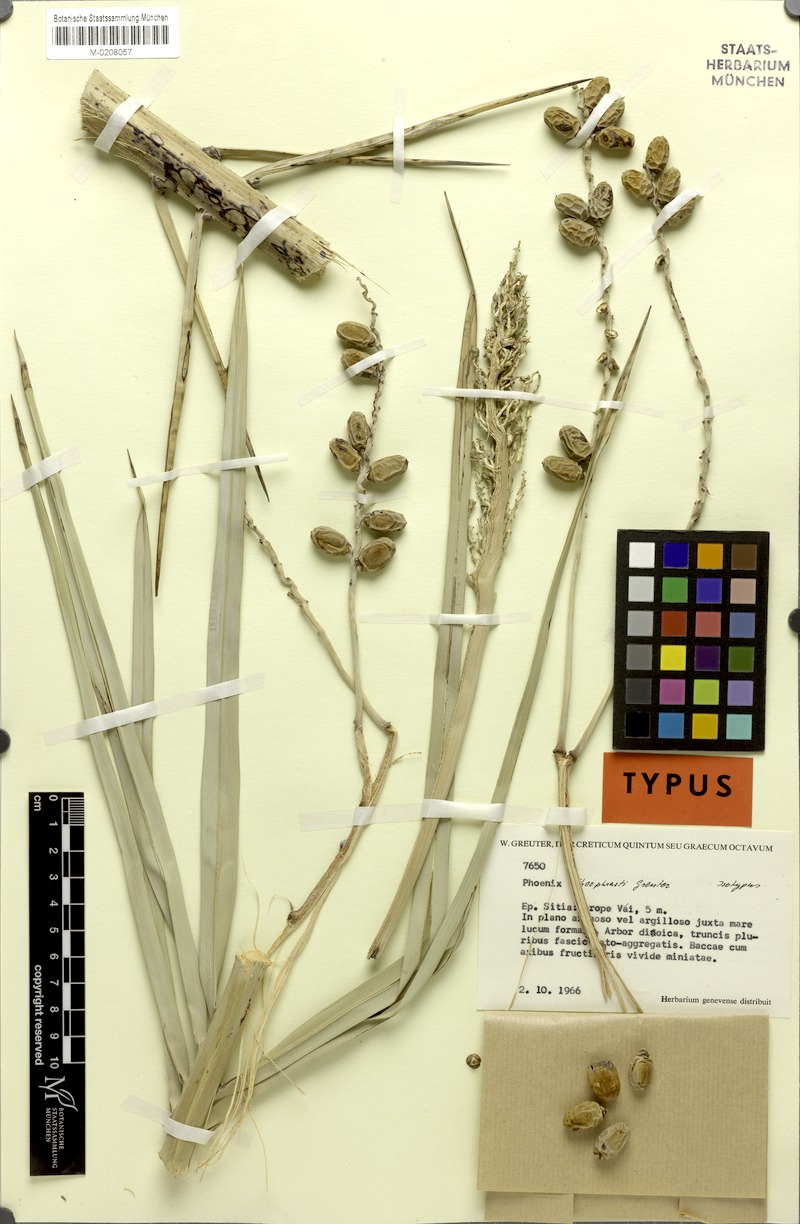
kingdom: Plantae
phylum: Tracheophyta
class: Liliopsida
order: Arecales
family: Arecaceae
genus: Phoenix
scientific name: Phoenix theophrasti
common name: Cretan date palm
